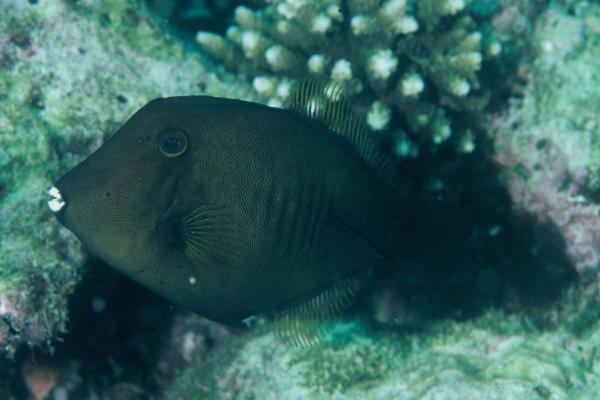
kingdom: Animalia
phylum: Chordata
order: Tetraodontiformes
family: Monacanthidae
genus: Amanses
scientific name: Amanses scopas
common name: Broom filefish
